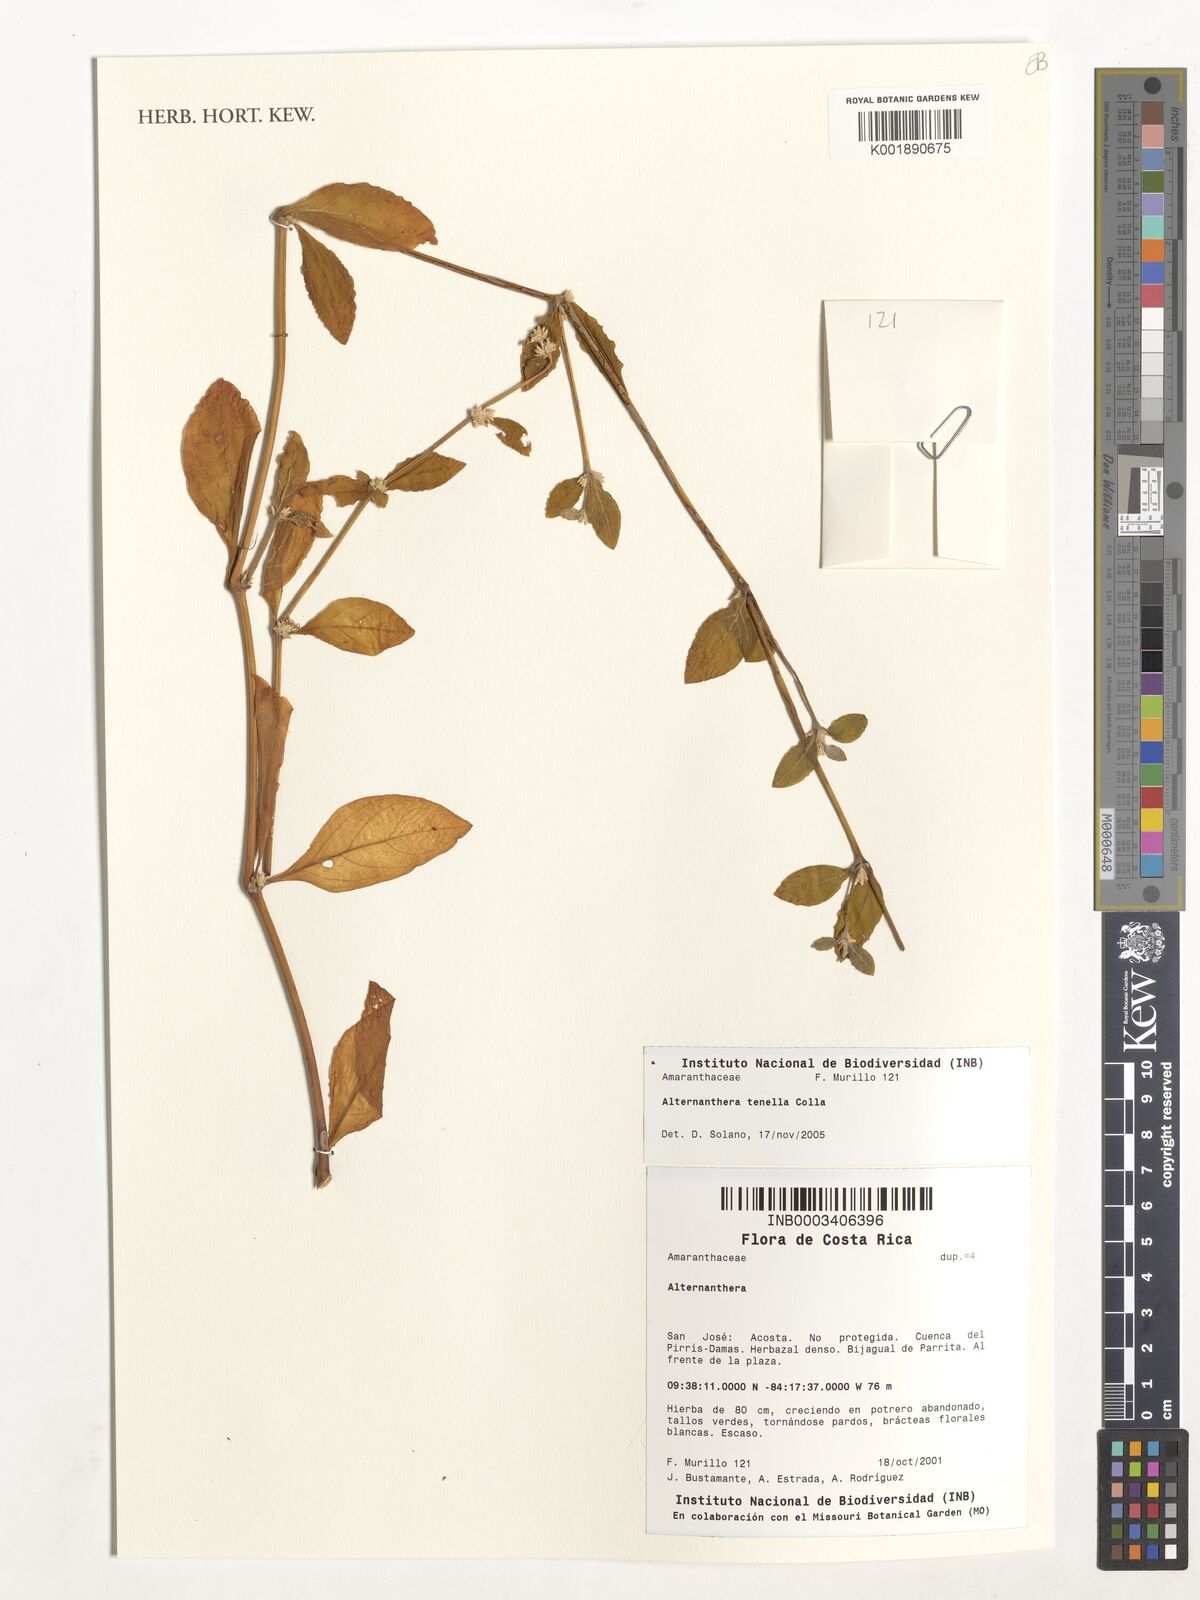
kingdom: Plantae
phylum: Tracheophyta
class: Magnoliopsida
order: Caryophyllales
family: Amaranthaceae
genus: Alternanthera
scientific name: Alternanthera
